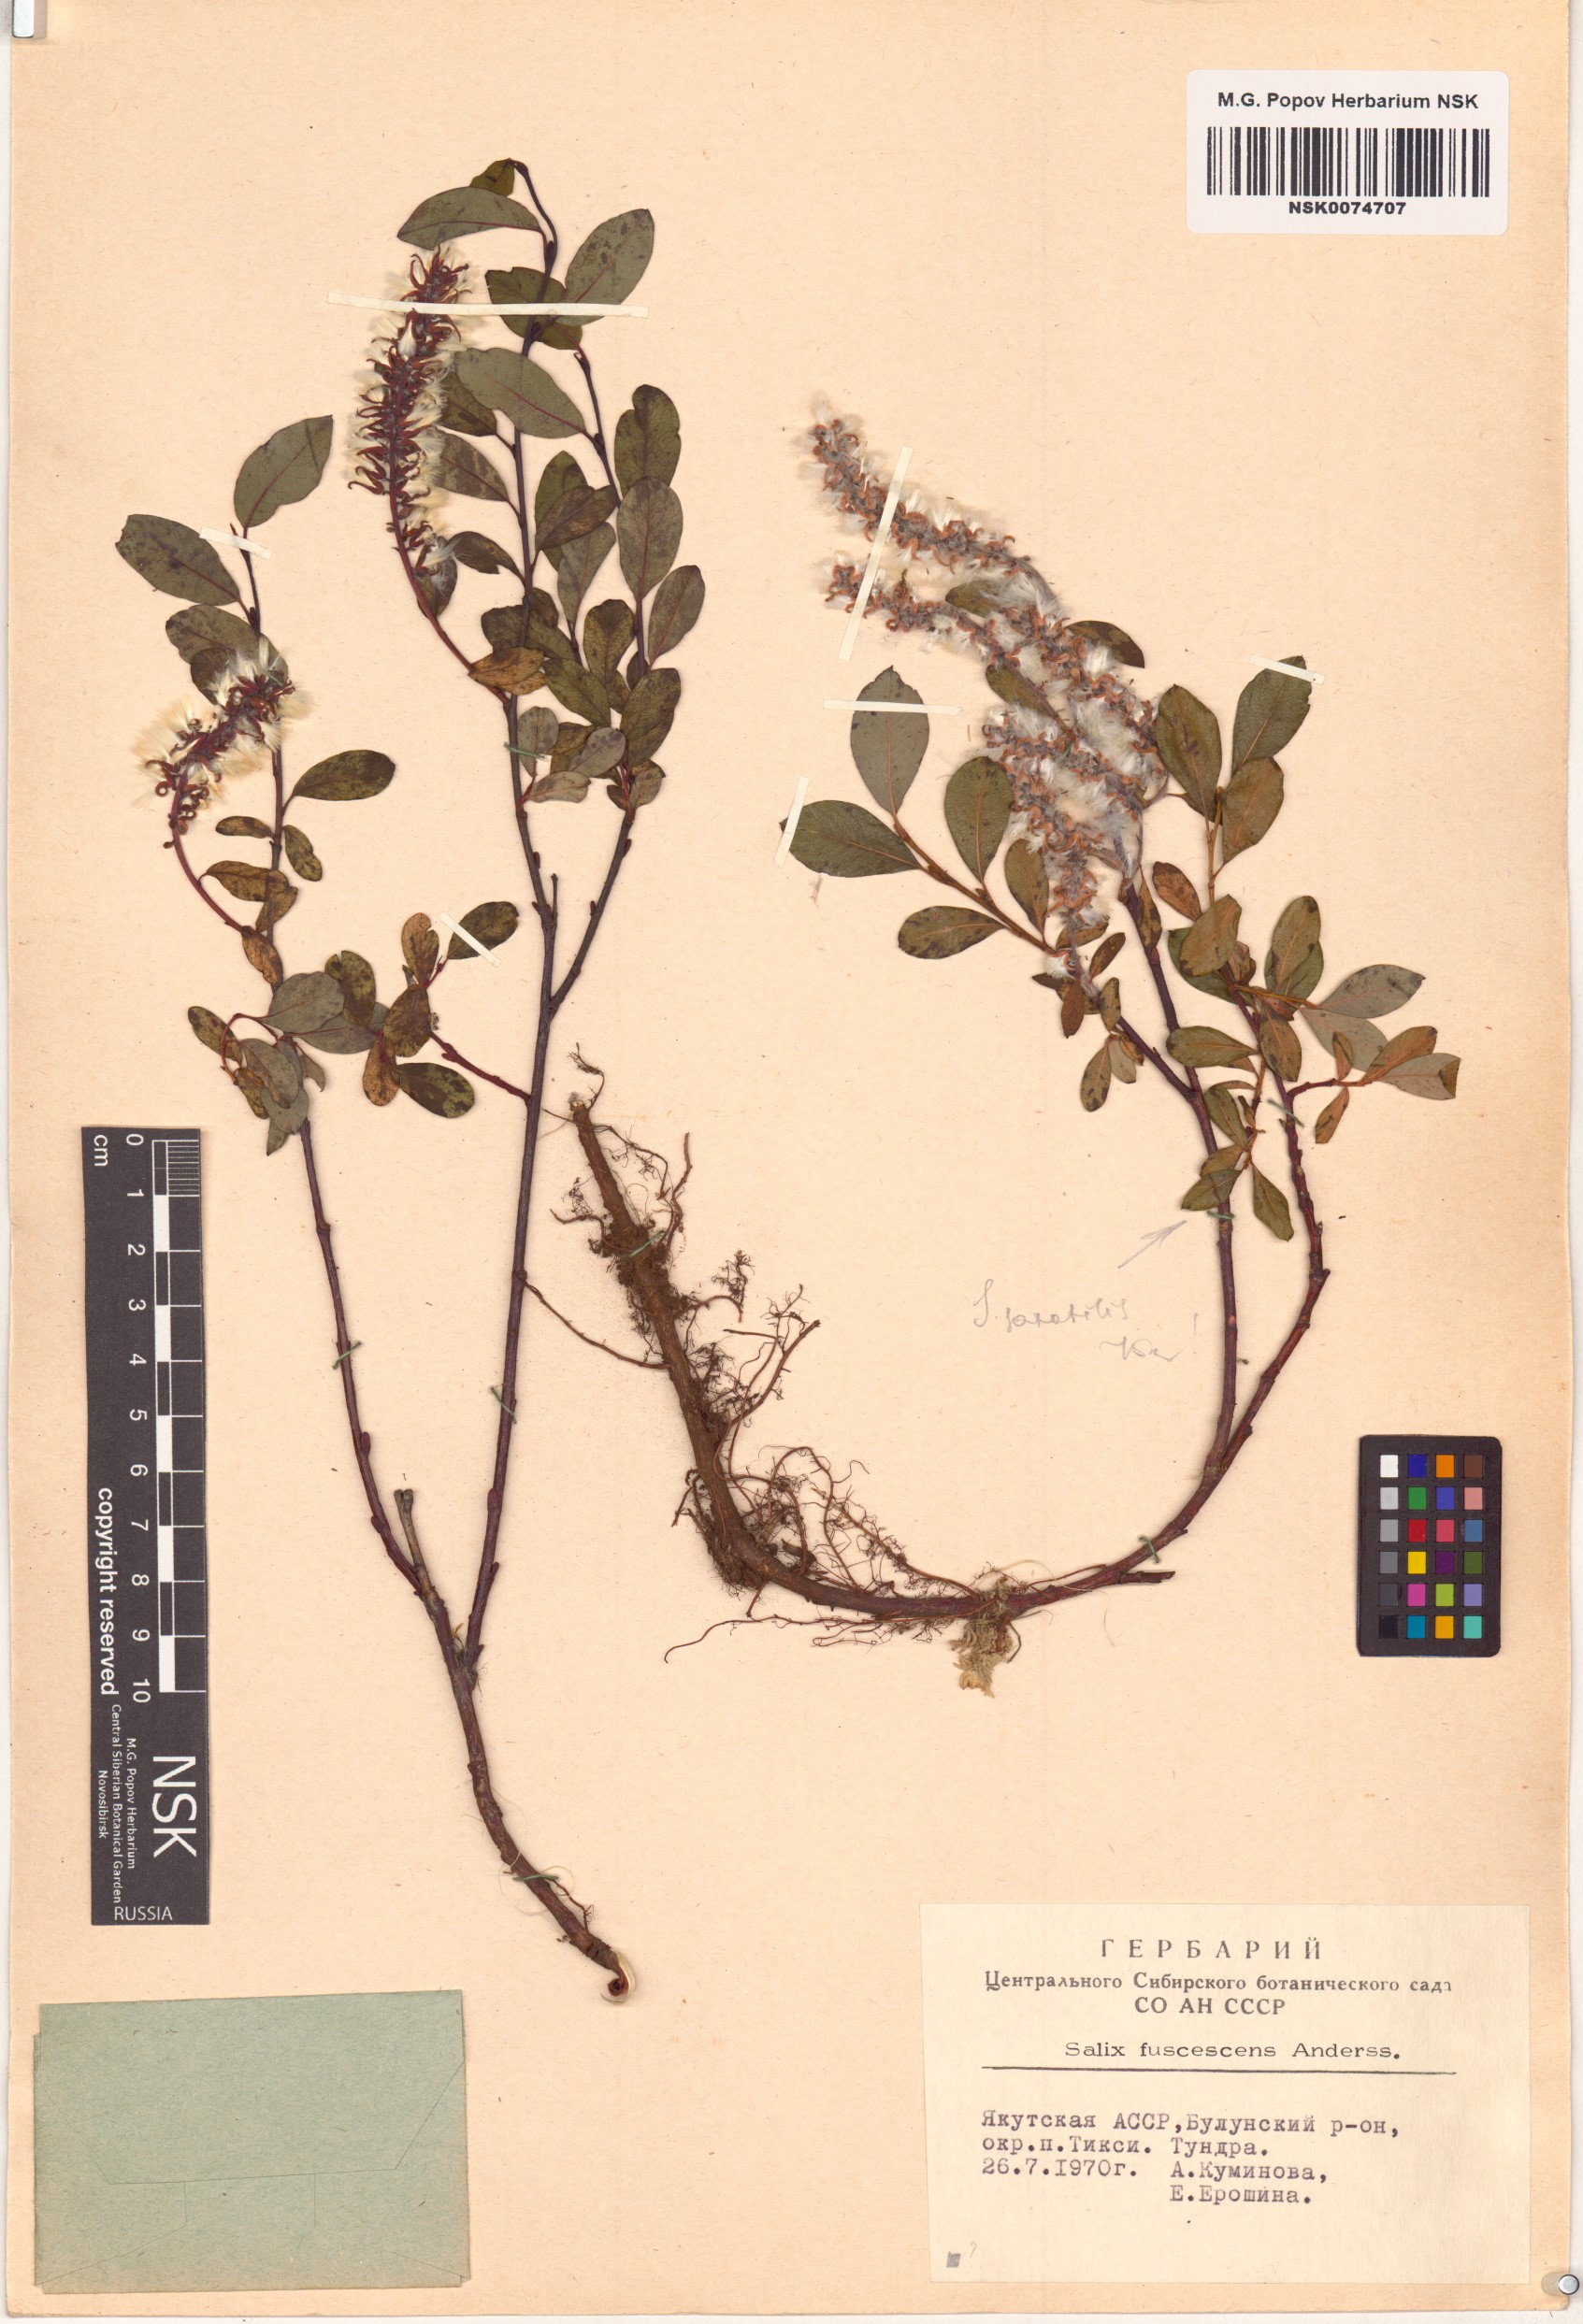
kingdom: Plantae
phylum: Tracheophyta
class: Magnoliopsida
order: Malpighiales
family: Salicaceae
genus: Salix
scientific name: Salix fuscescens
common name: Brownish willow
